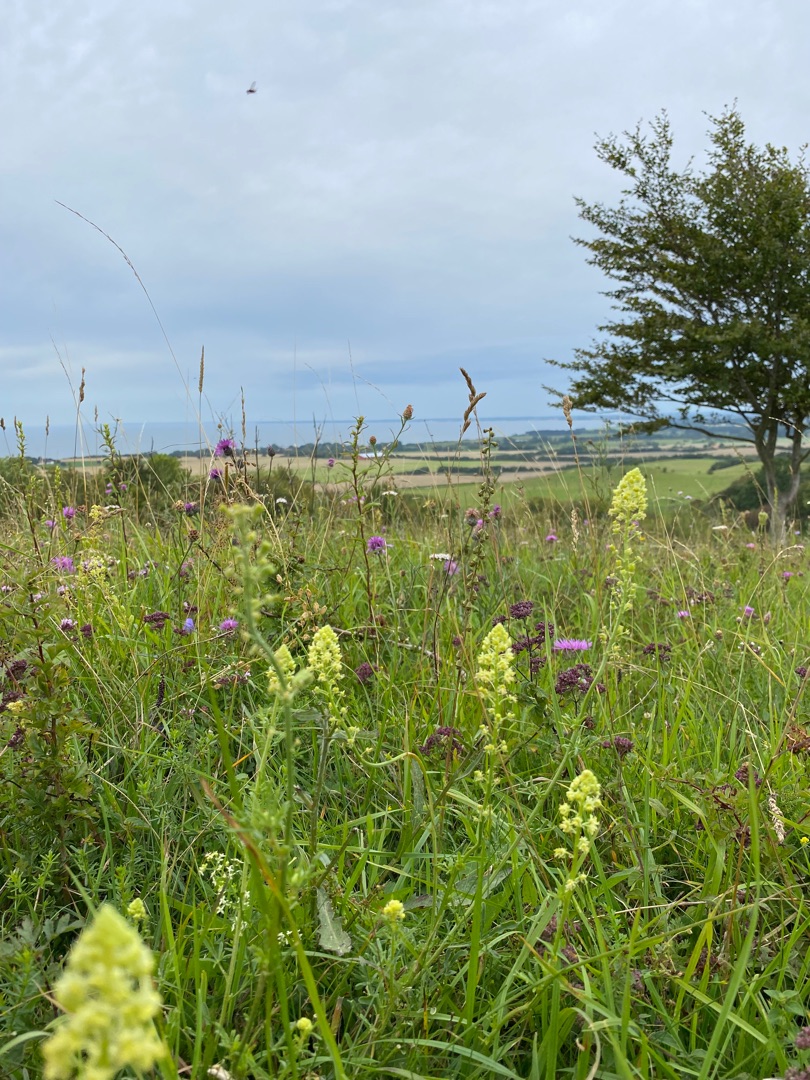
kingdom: Plantae
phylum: Tracheophyta
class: Magnoliopsida
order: Brassicales
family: Resedaceae
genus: Reseda
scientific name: Reseda lutea
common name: Gul reseda
